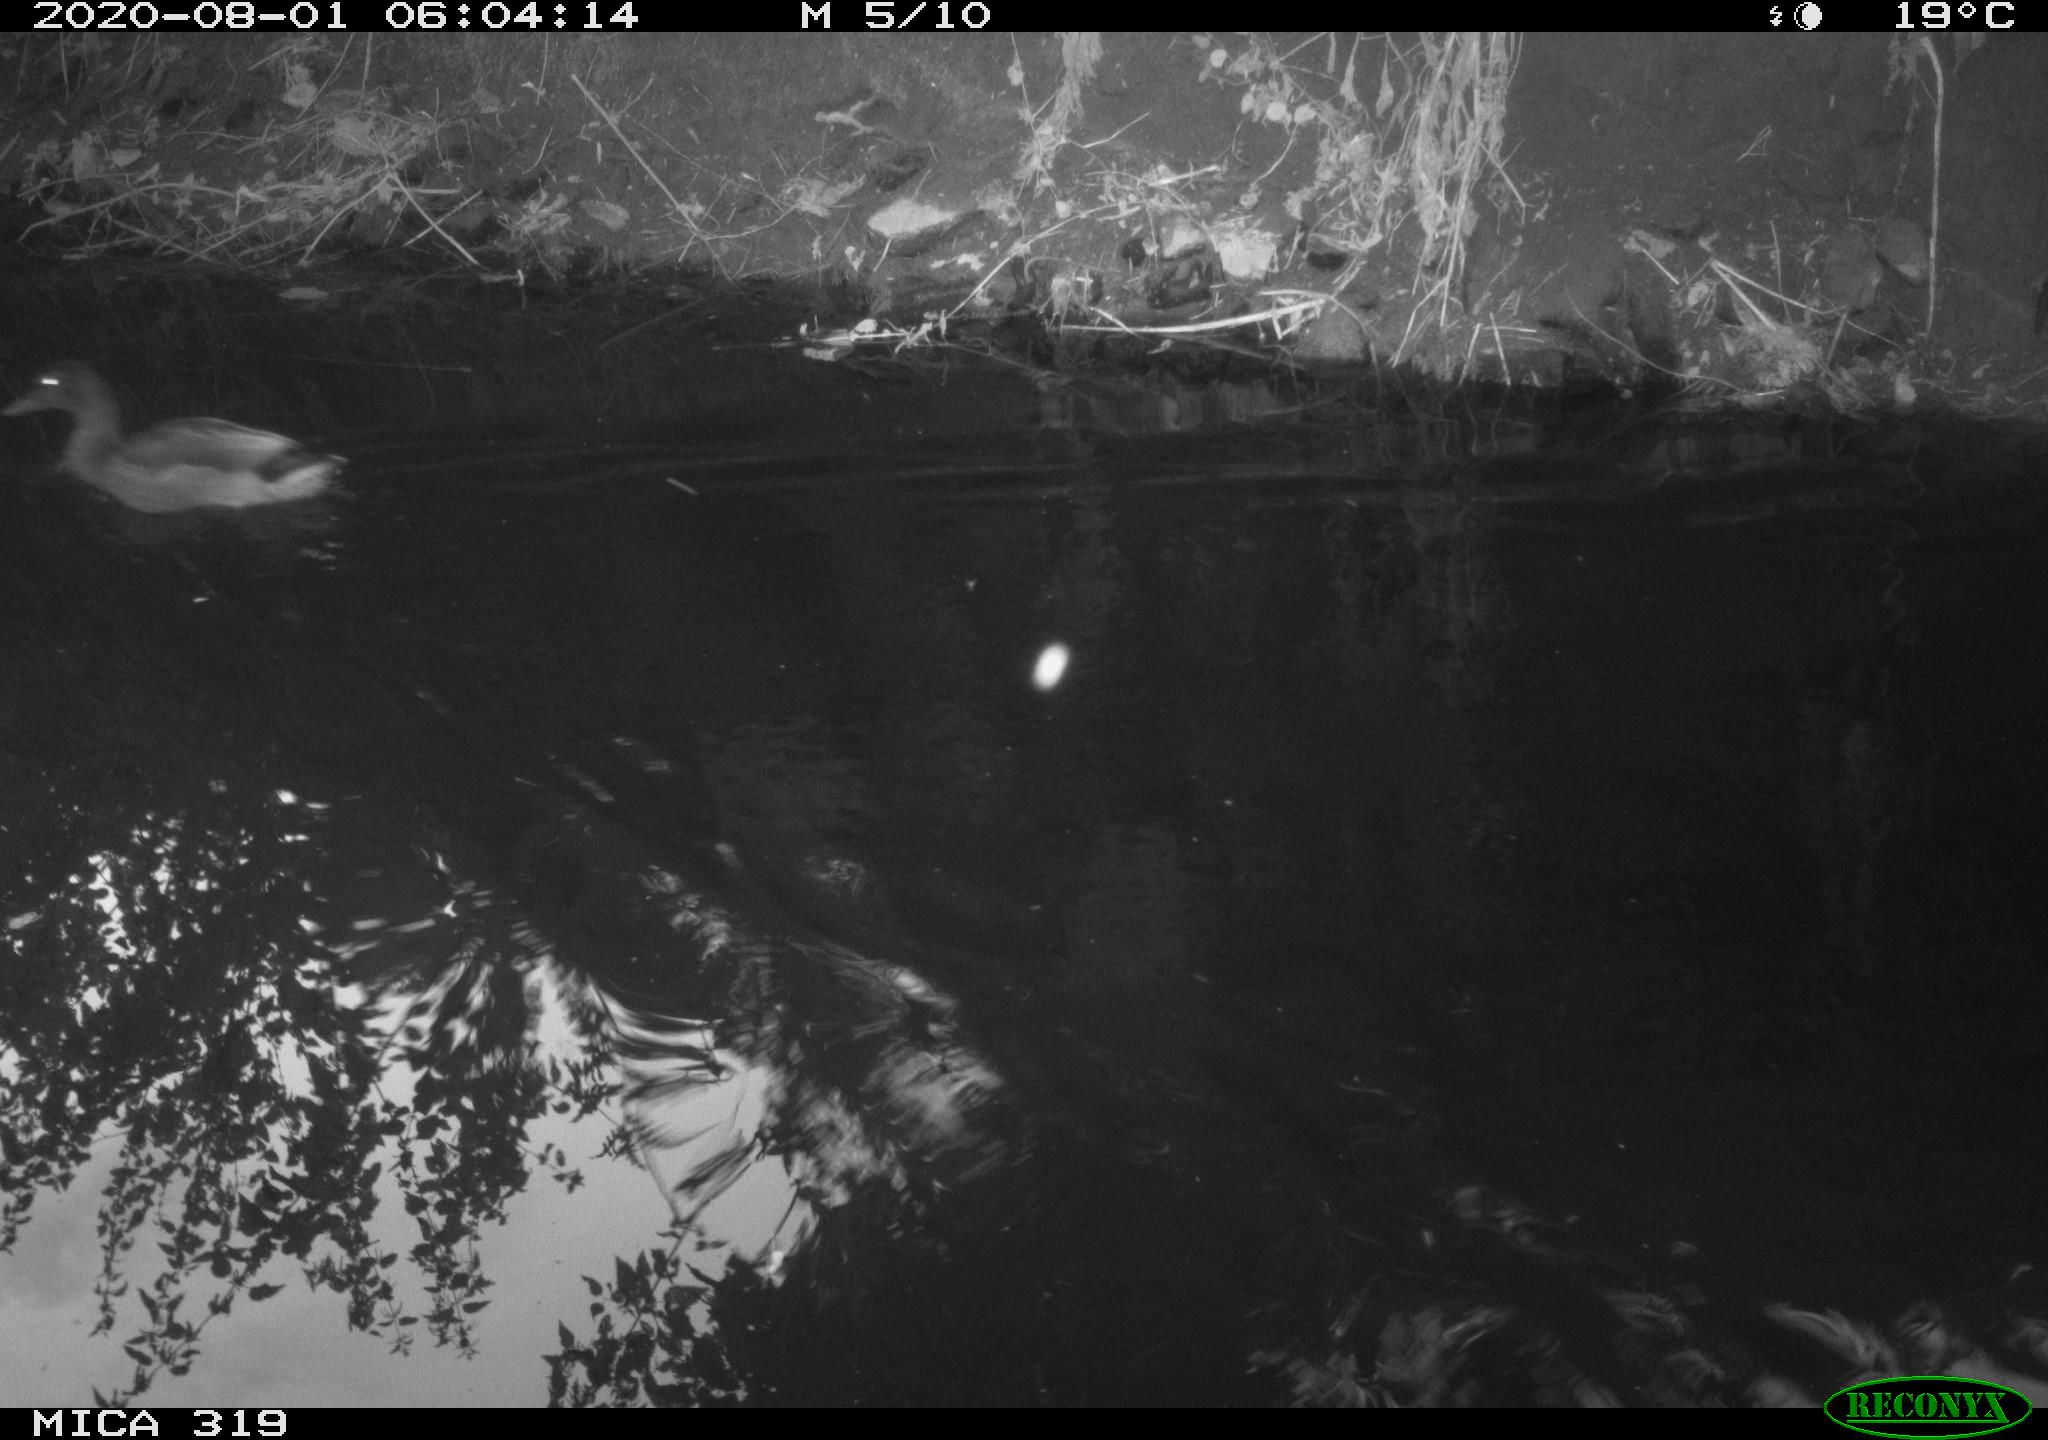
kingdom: Animalia
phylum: Chordata
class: Aves
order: Anseriformes
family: Anatidae
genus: Anas
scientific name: Anas platyrhynchos
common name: Mallard
